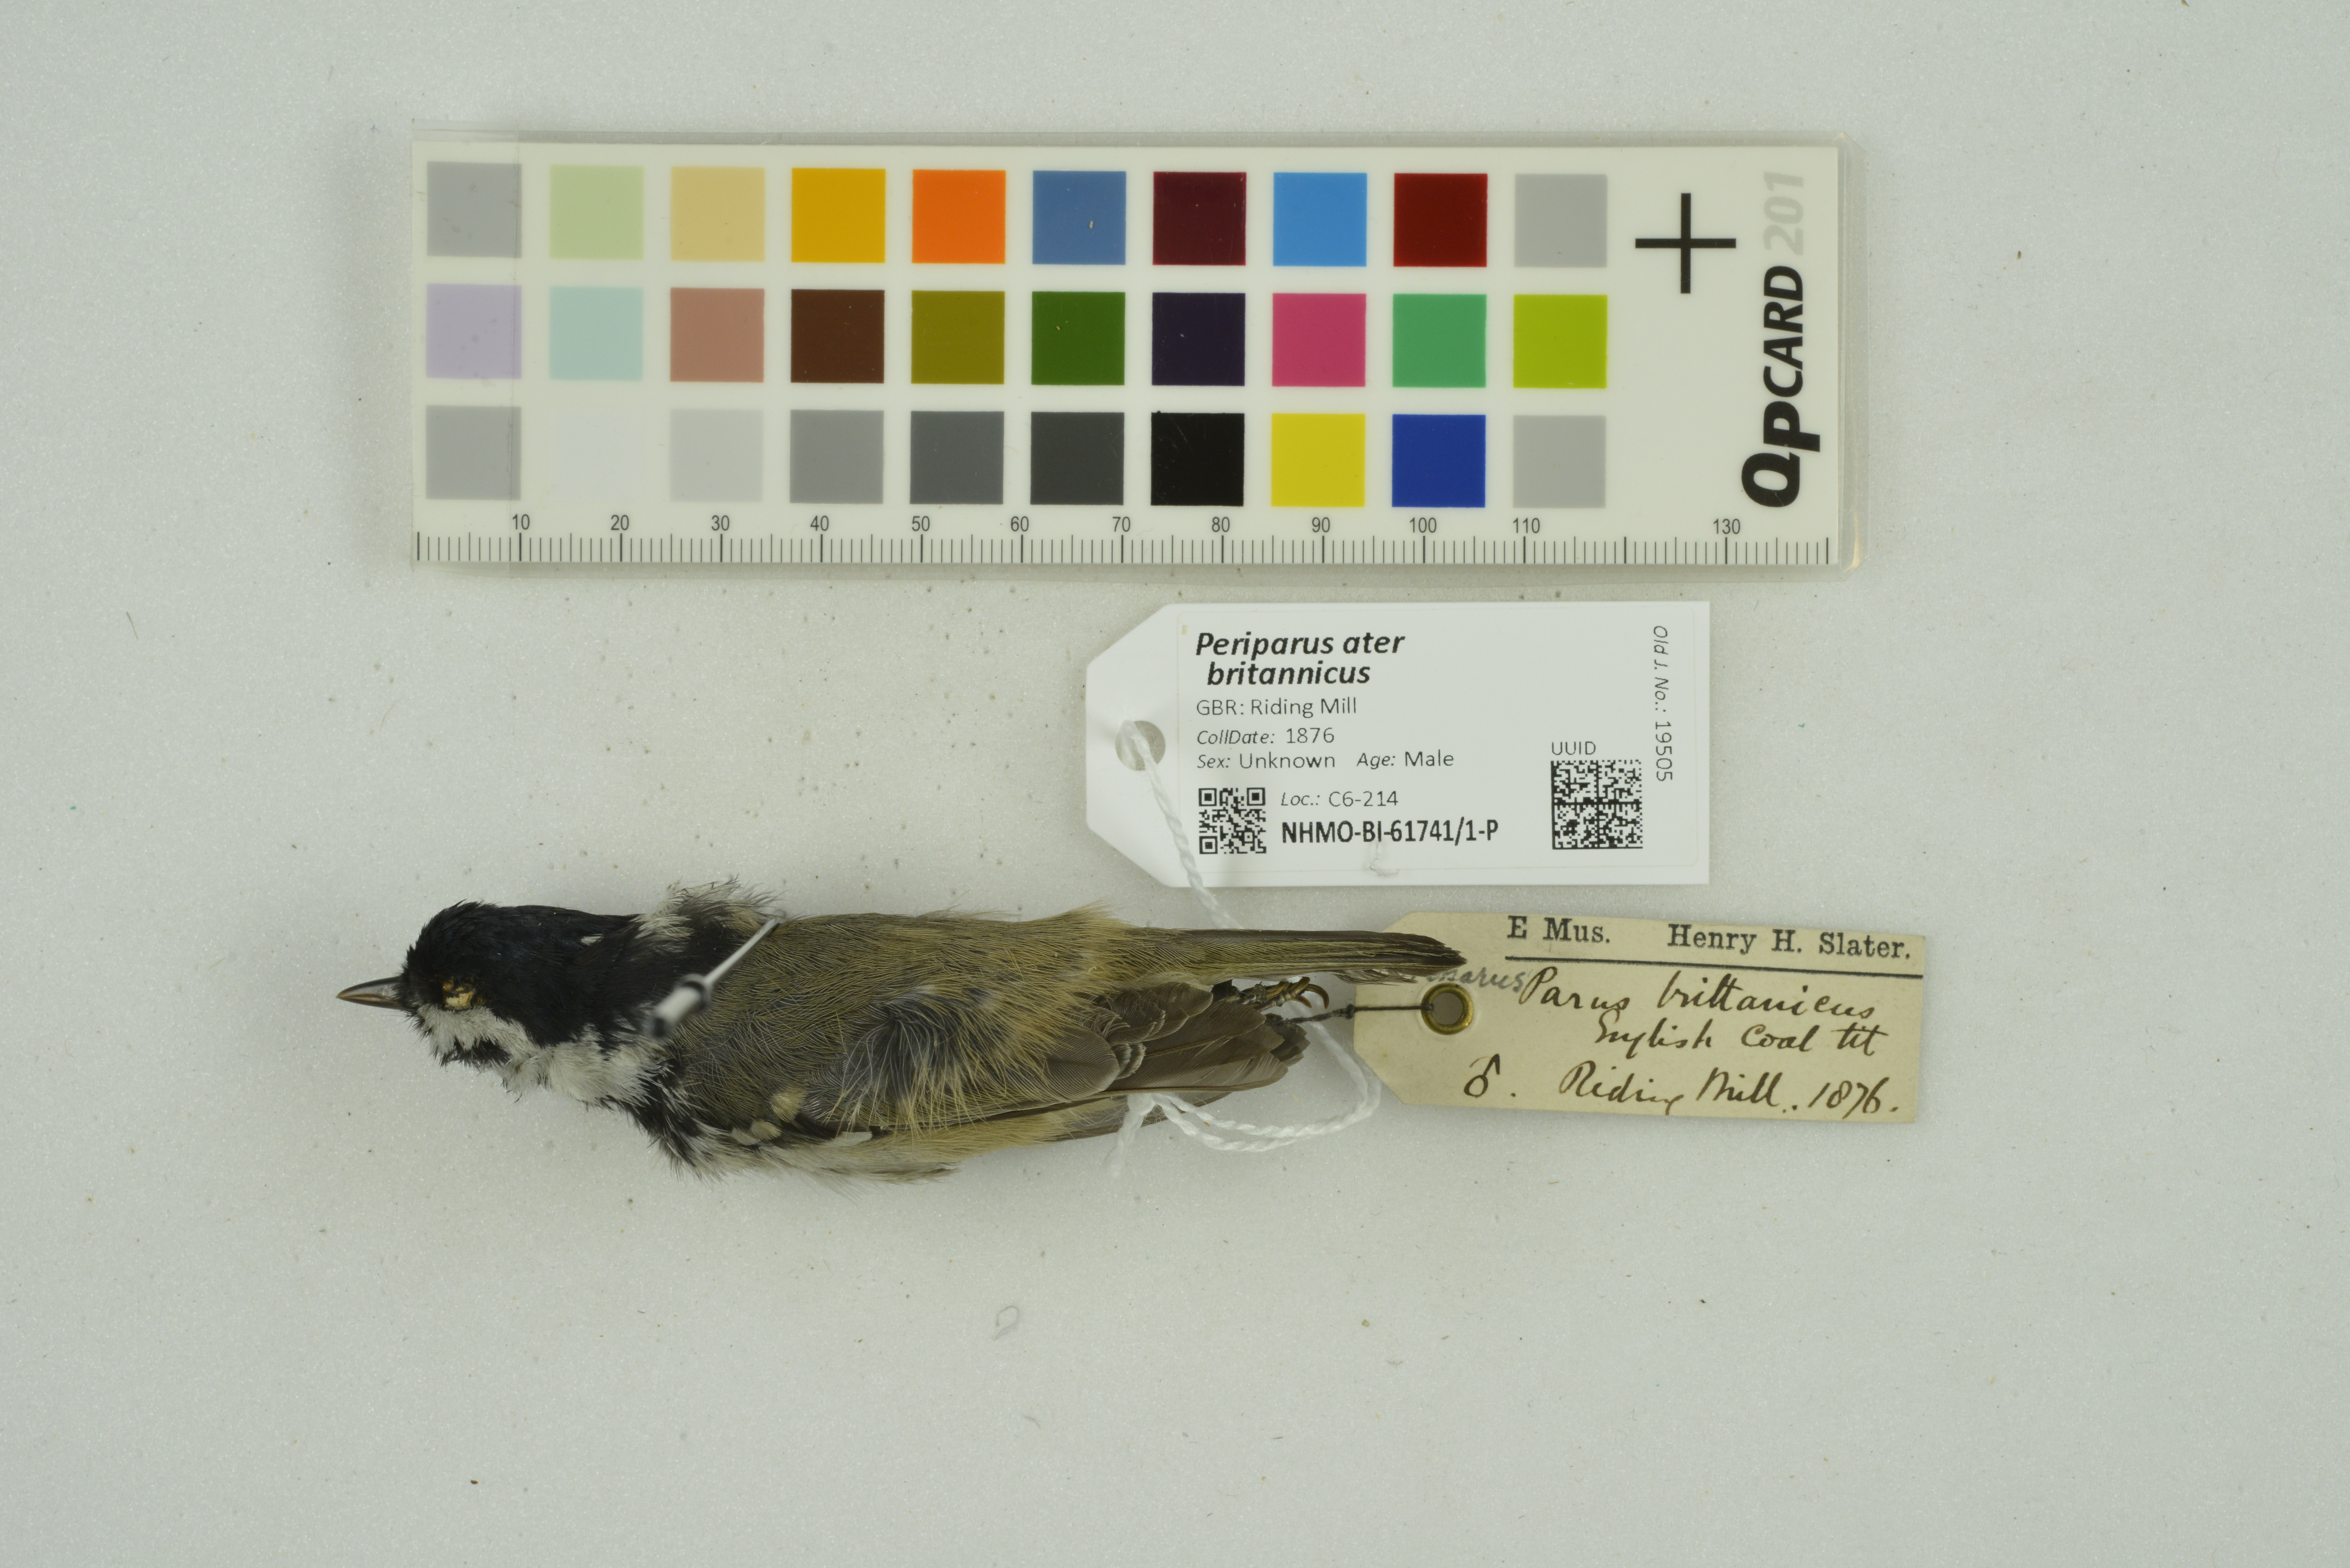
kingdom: Animalia
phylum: Chordata
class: Aves
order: Passeriformes
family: Paridae
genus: Periparus
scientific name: Periparus ater
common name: Coal tit
